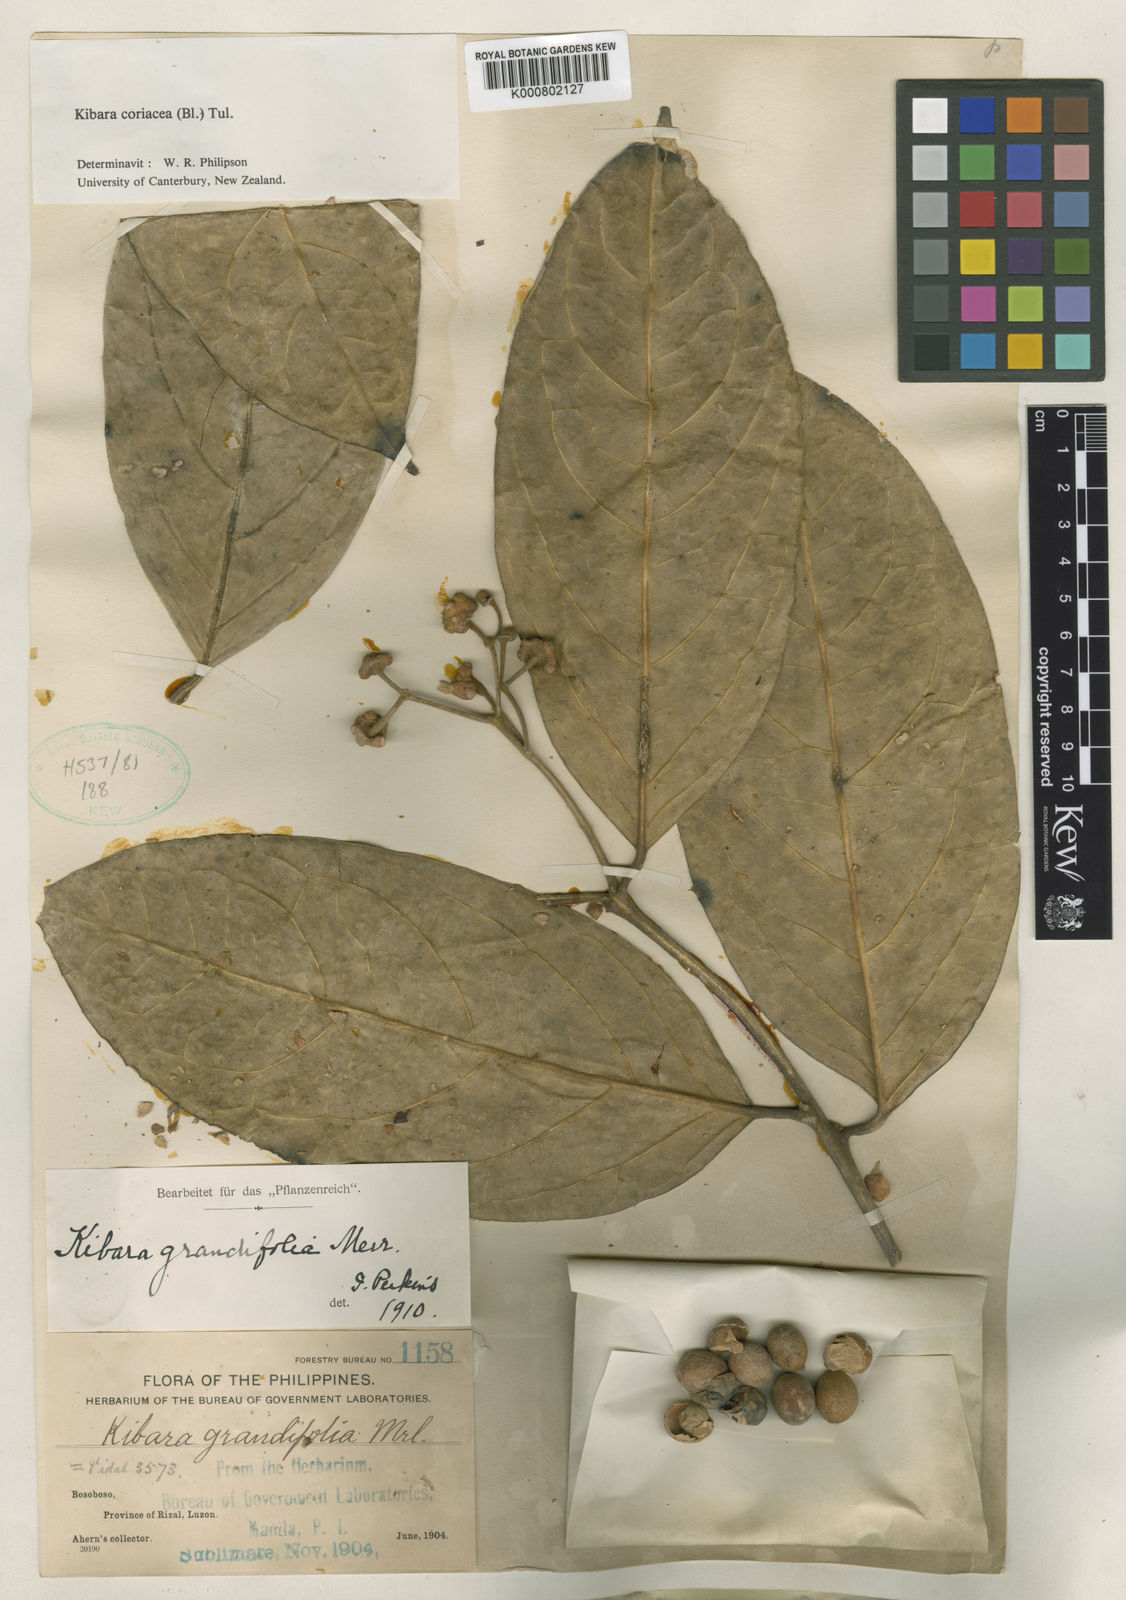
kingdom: Plantae
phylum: Tracheophyta
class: Magnoliopsida
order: Laurales
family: Monimiaceae
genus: Kibara
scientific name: Kibara coriacea
